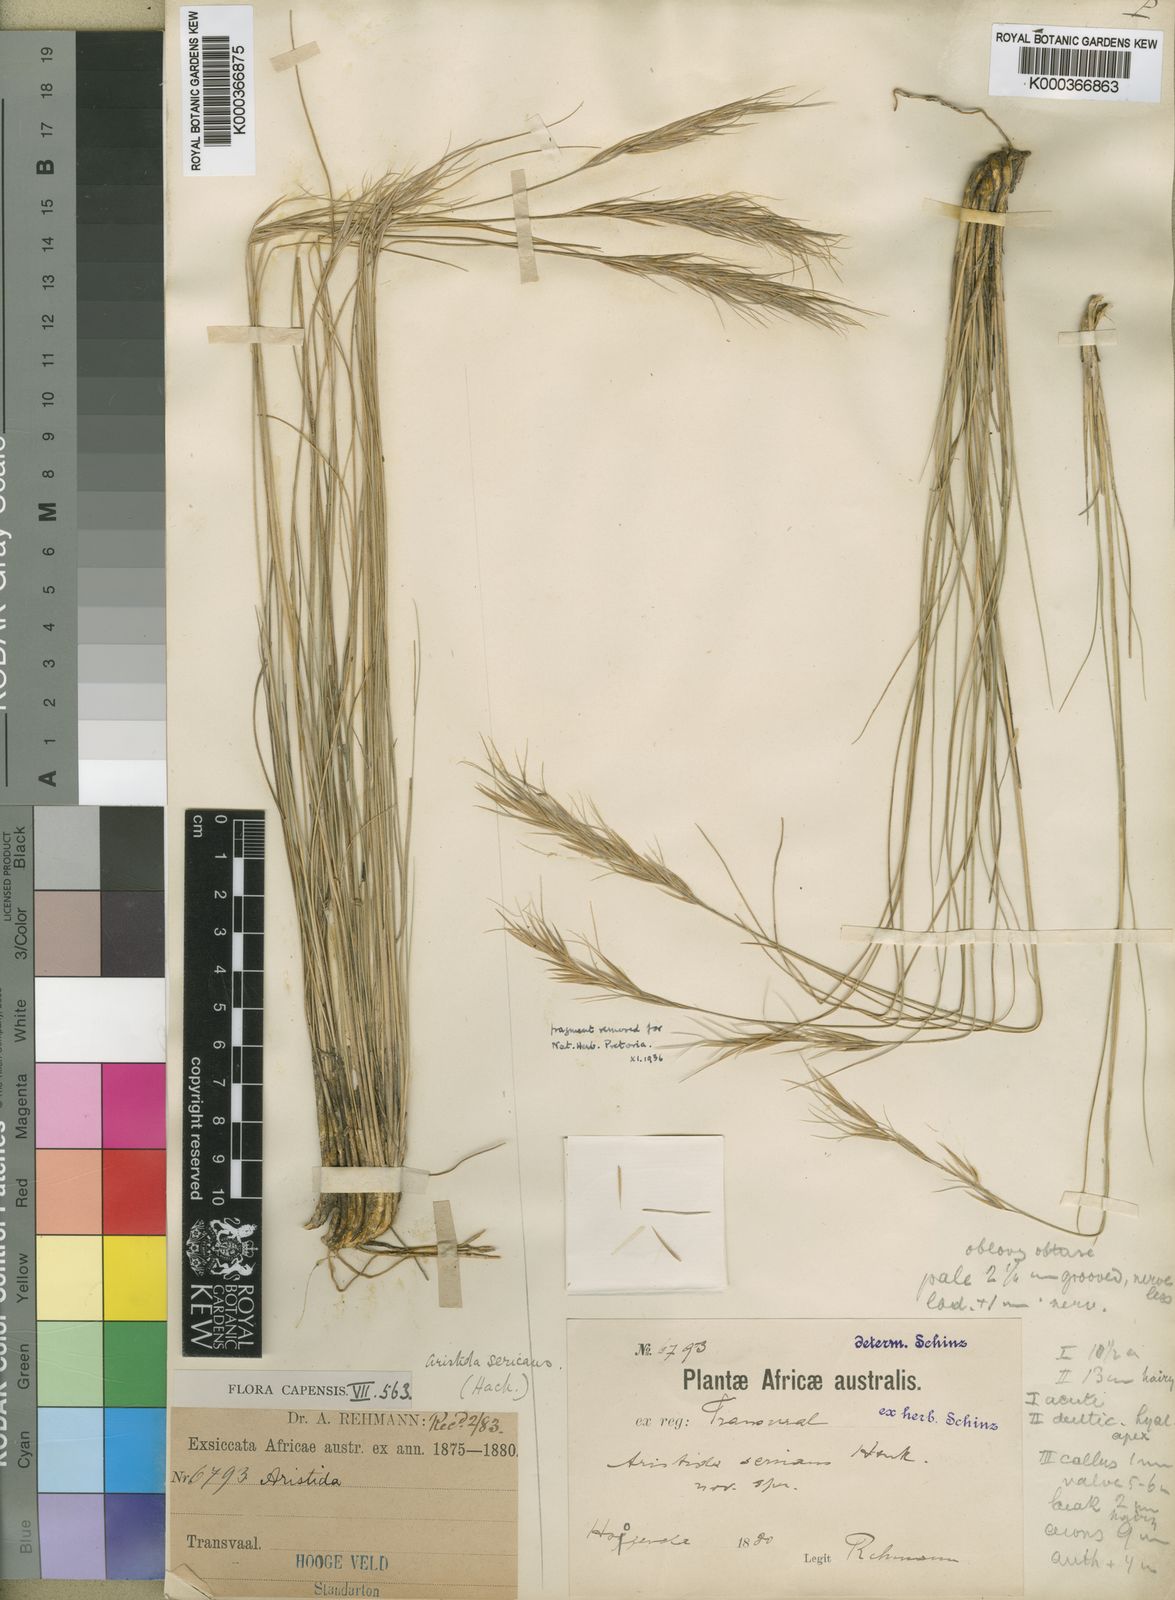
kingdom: Plantae
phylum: Tracheophyta
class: Liliopsida
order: Poales
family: Poaceae
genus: Stipagrostis
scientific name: Stipagrostis zeyheri
